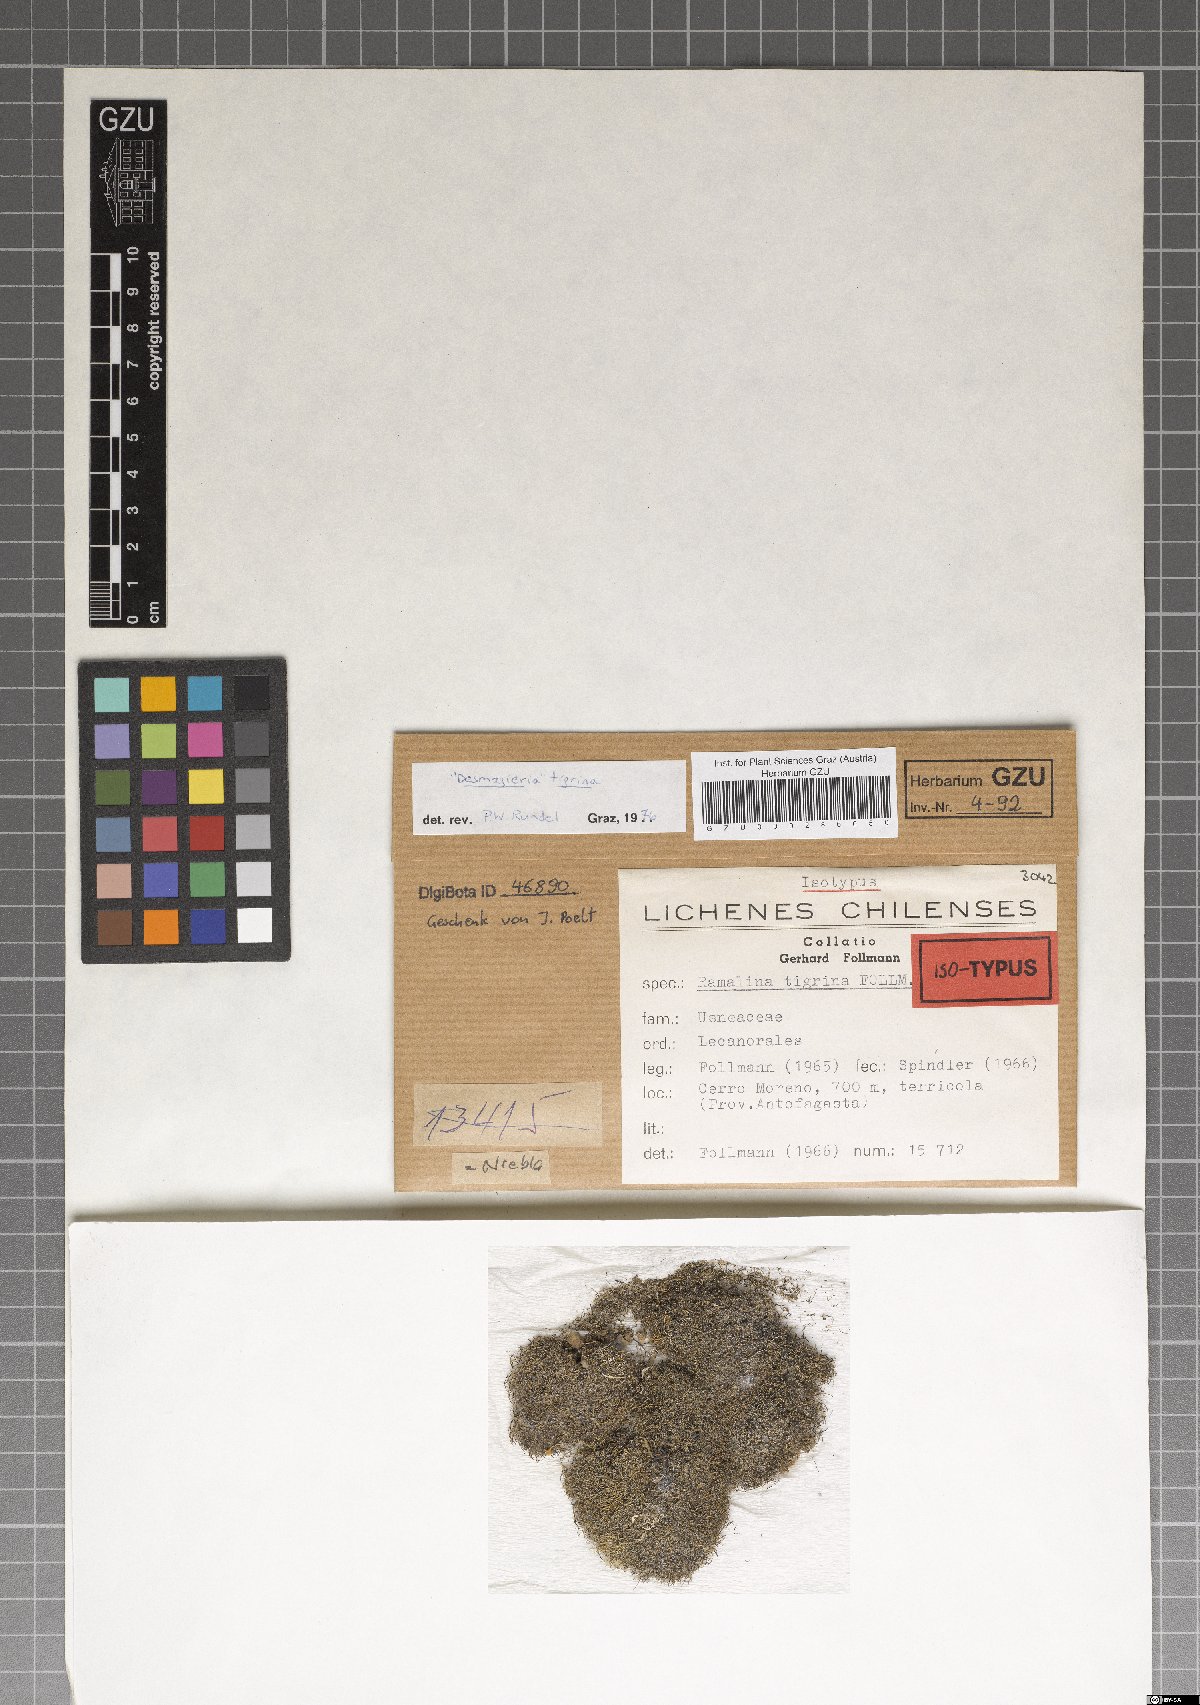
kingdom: Fungi
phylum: Ascomycota
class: Lecanoromycetes
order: Lecanorales
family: Ramalinaceae
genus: Niebla
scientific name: Niebla tigrina
